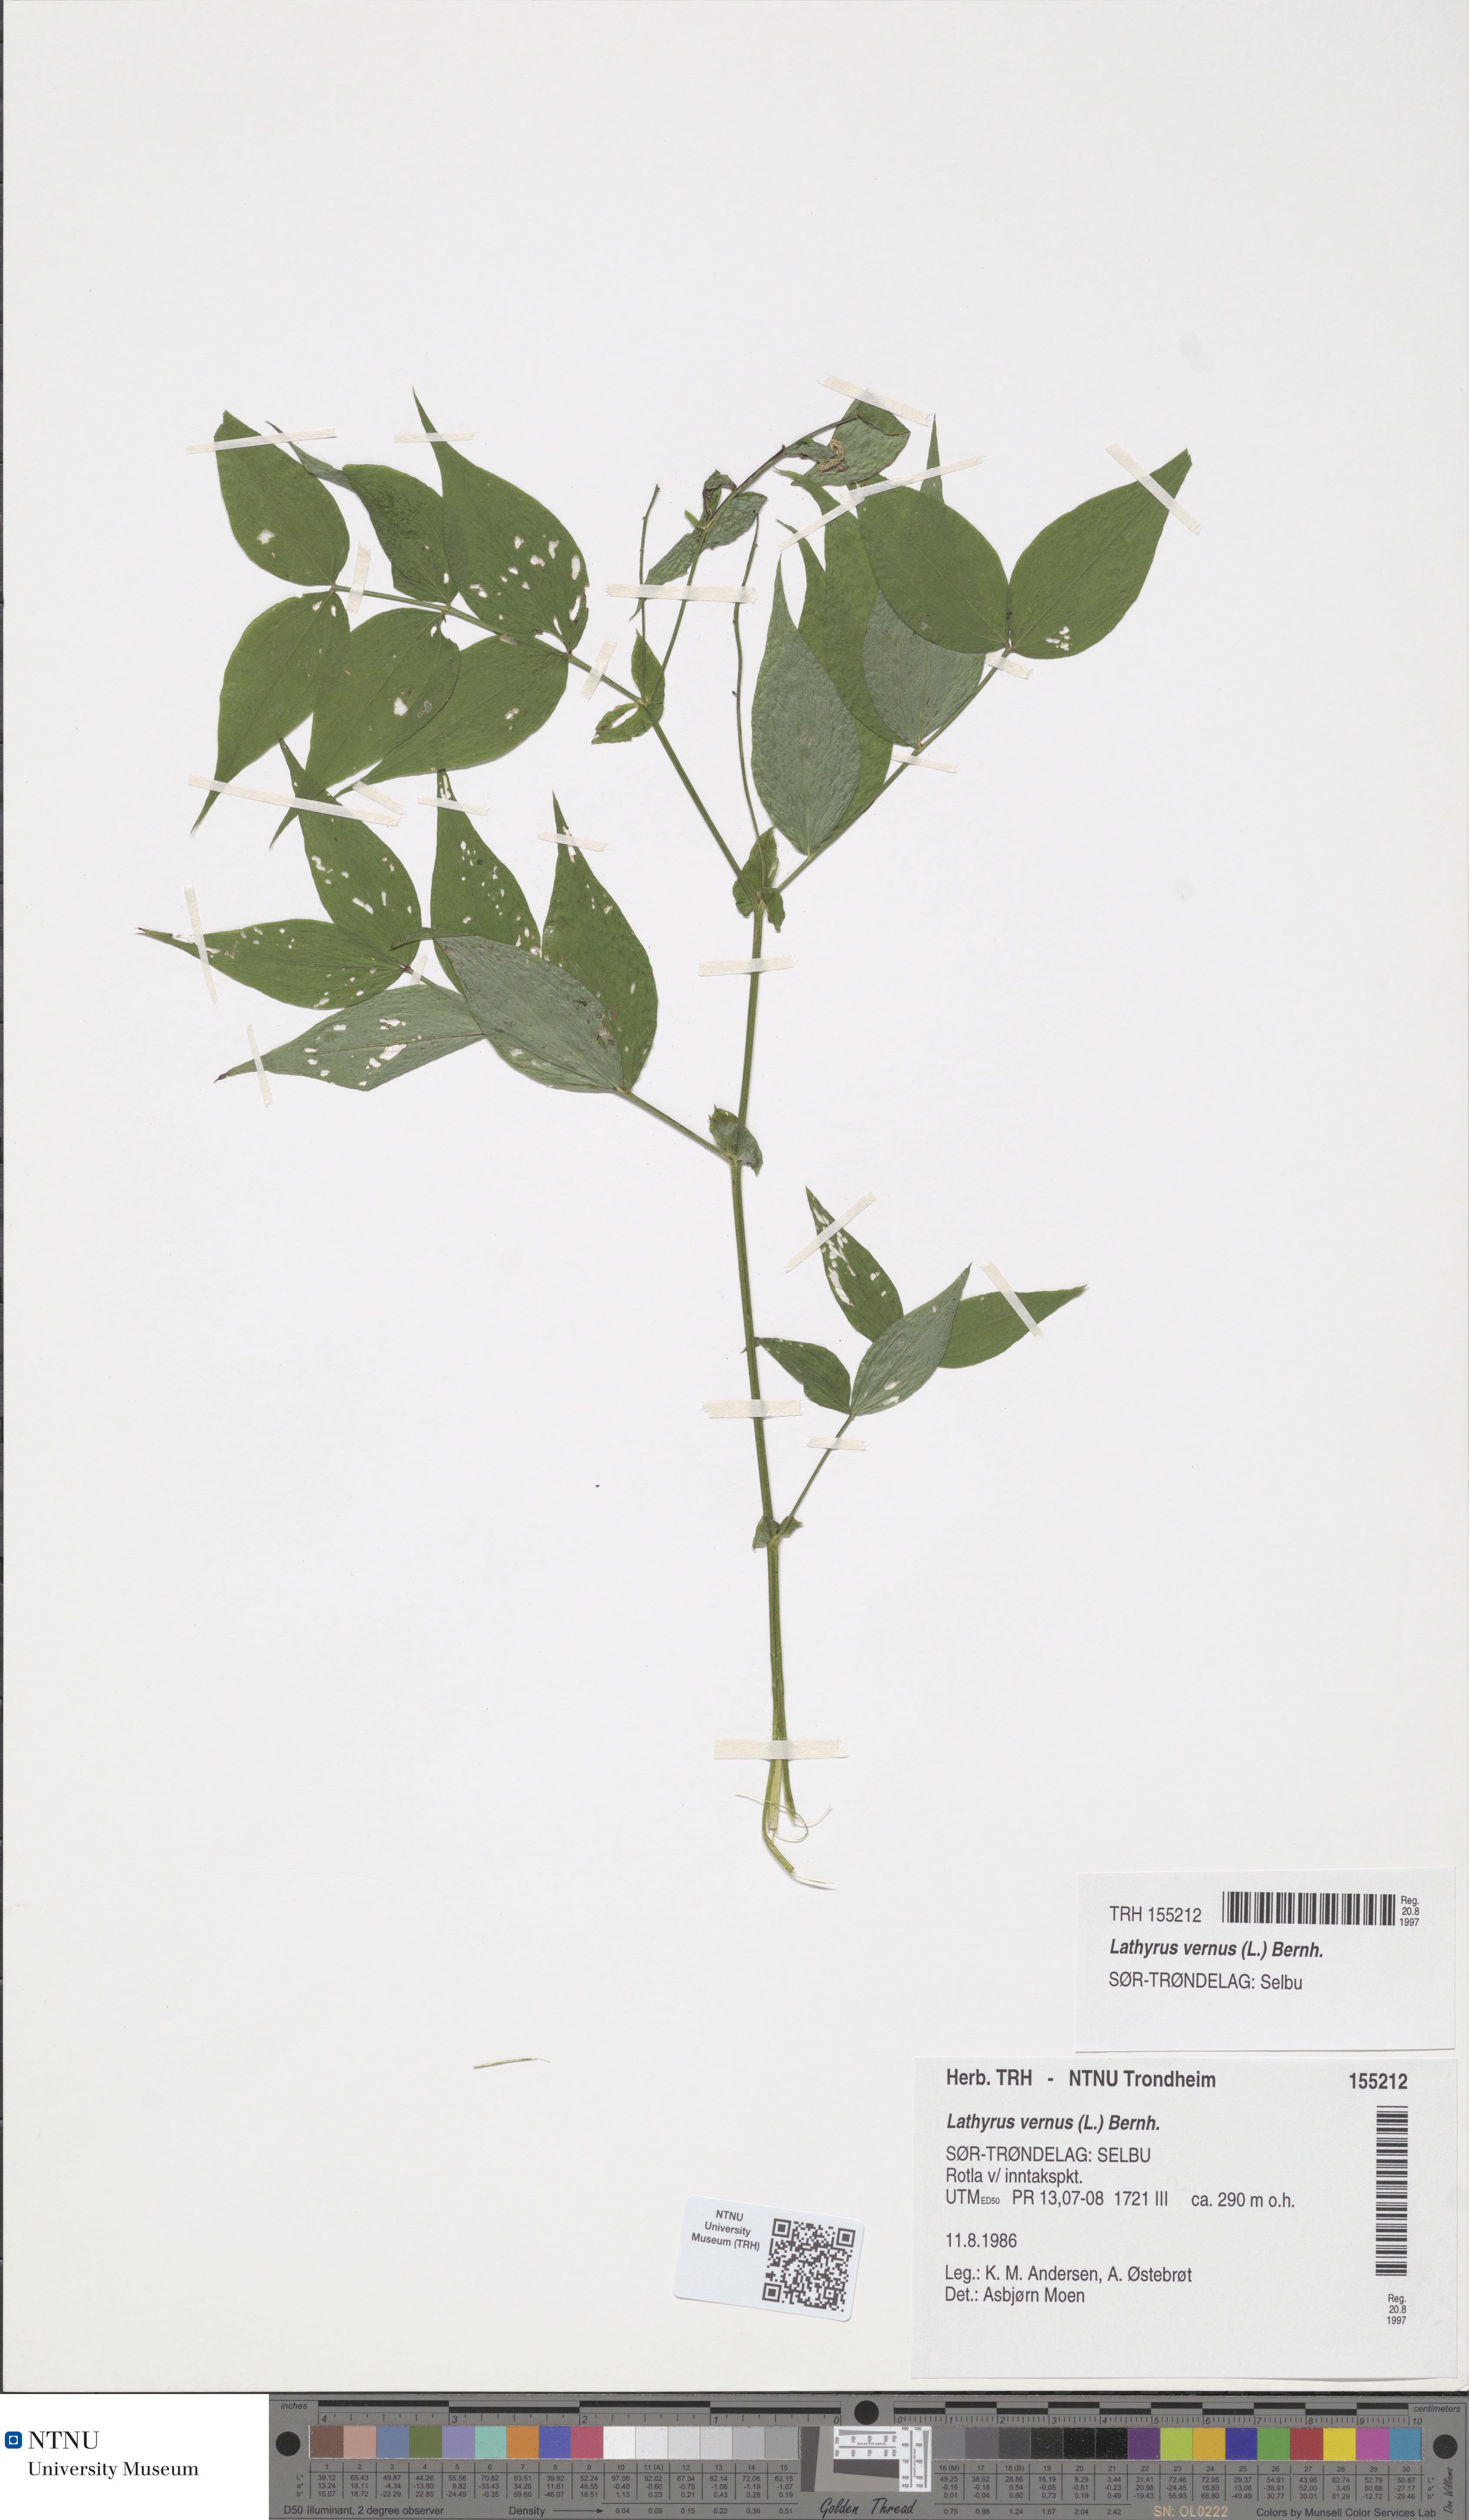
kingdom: Plantae
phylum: Tracheophyta
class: Magnoliopsida
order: Fabales
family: Fabaceae
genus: Lathyrus
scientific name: Lathyrus vernus
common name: Spring pea
